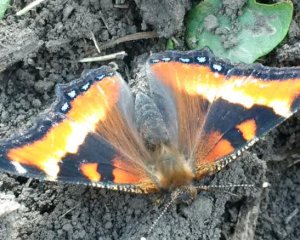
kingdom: Animalia
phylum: Arthropoda
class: Insecta
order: Lepidoptera
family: Nymphalidae
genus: Aglais
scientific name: Aglais milberti
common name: Milbert's Tortoiseshell
